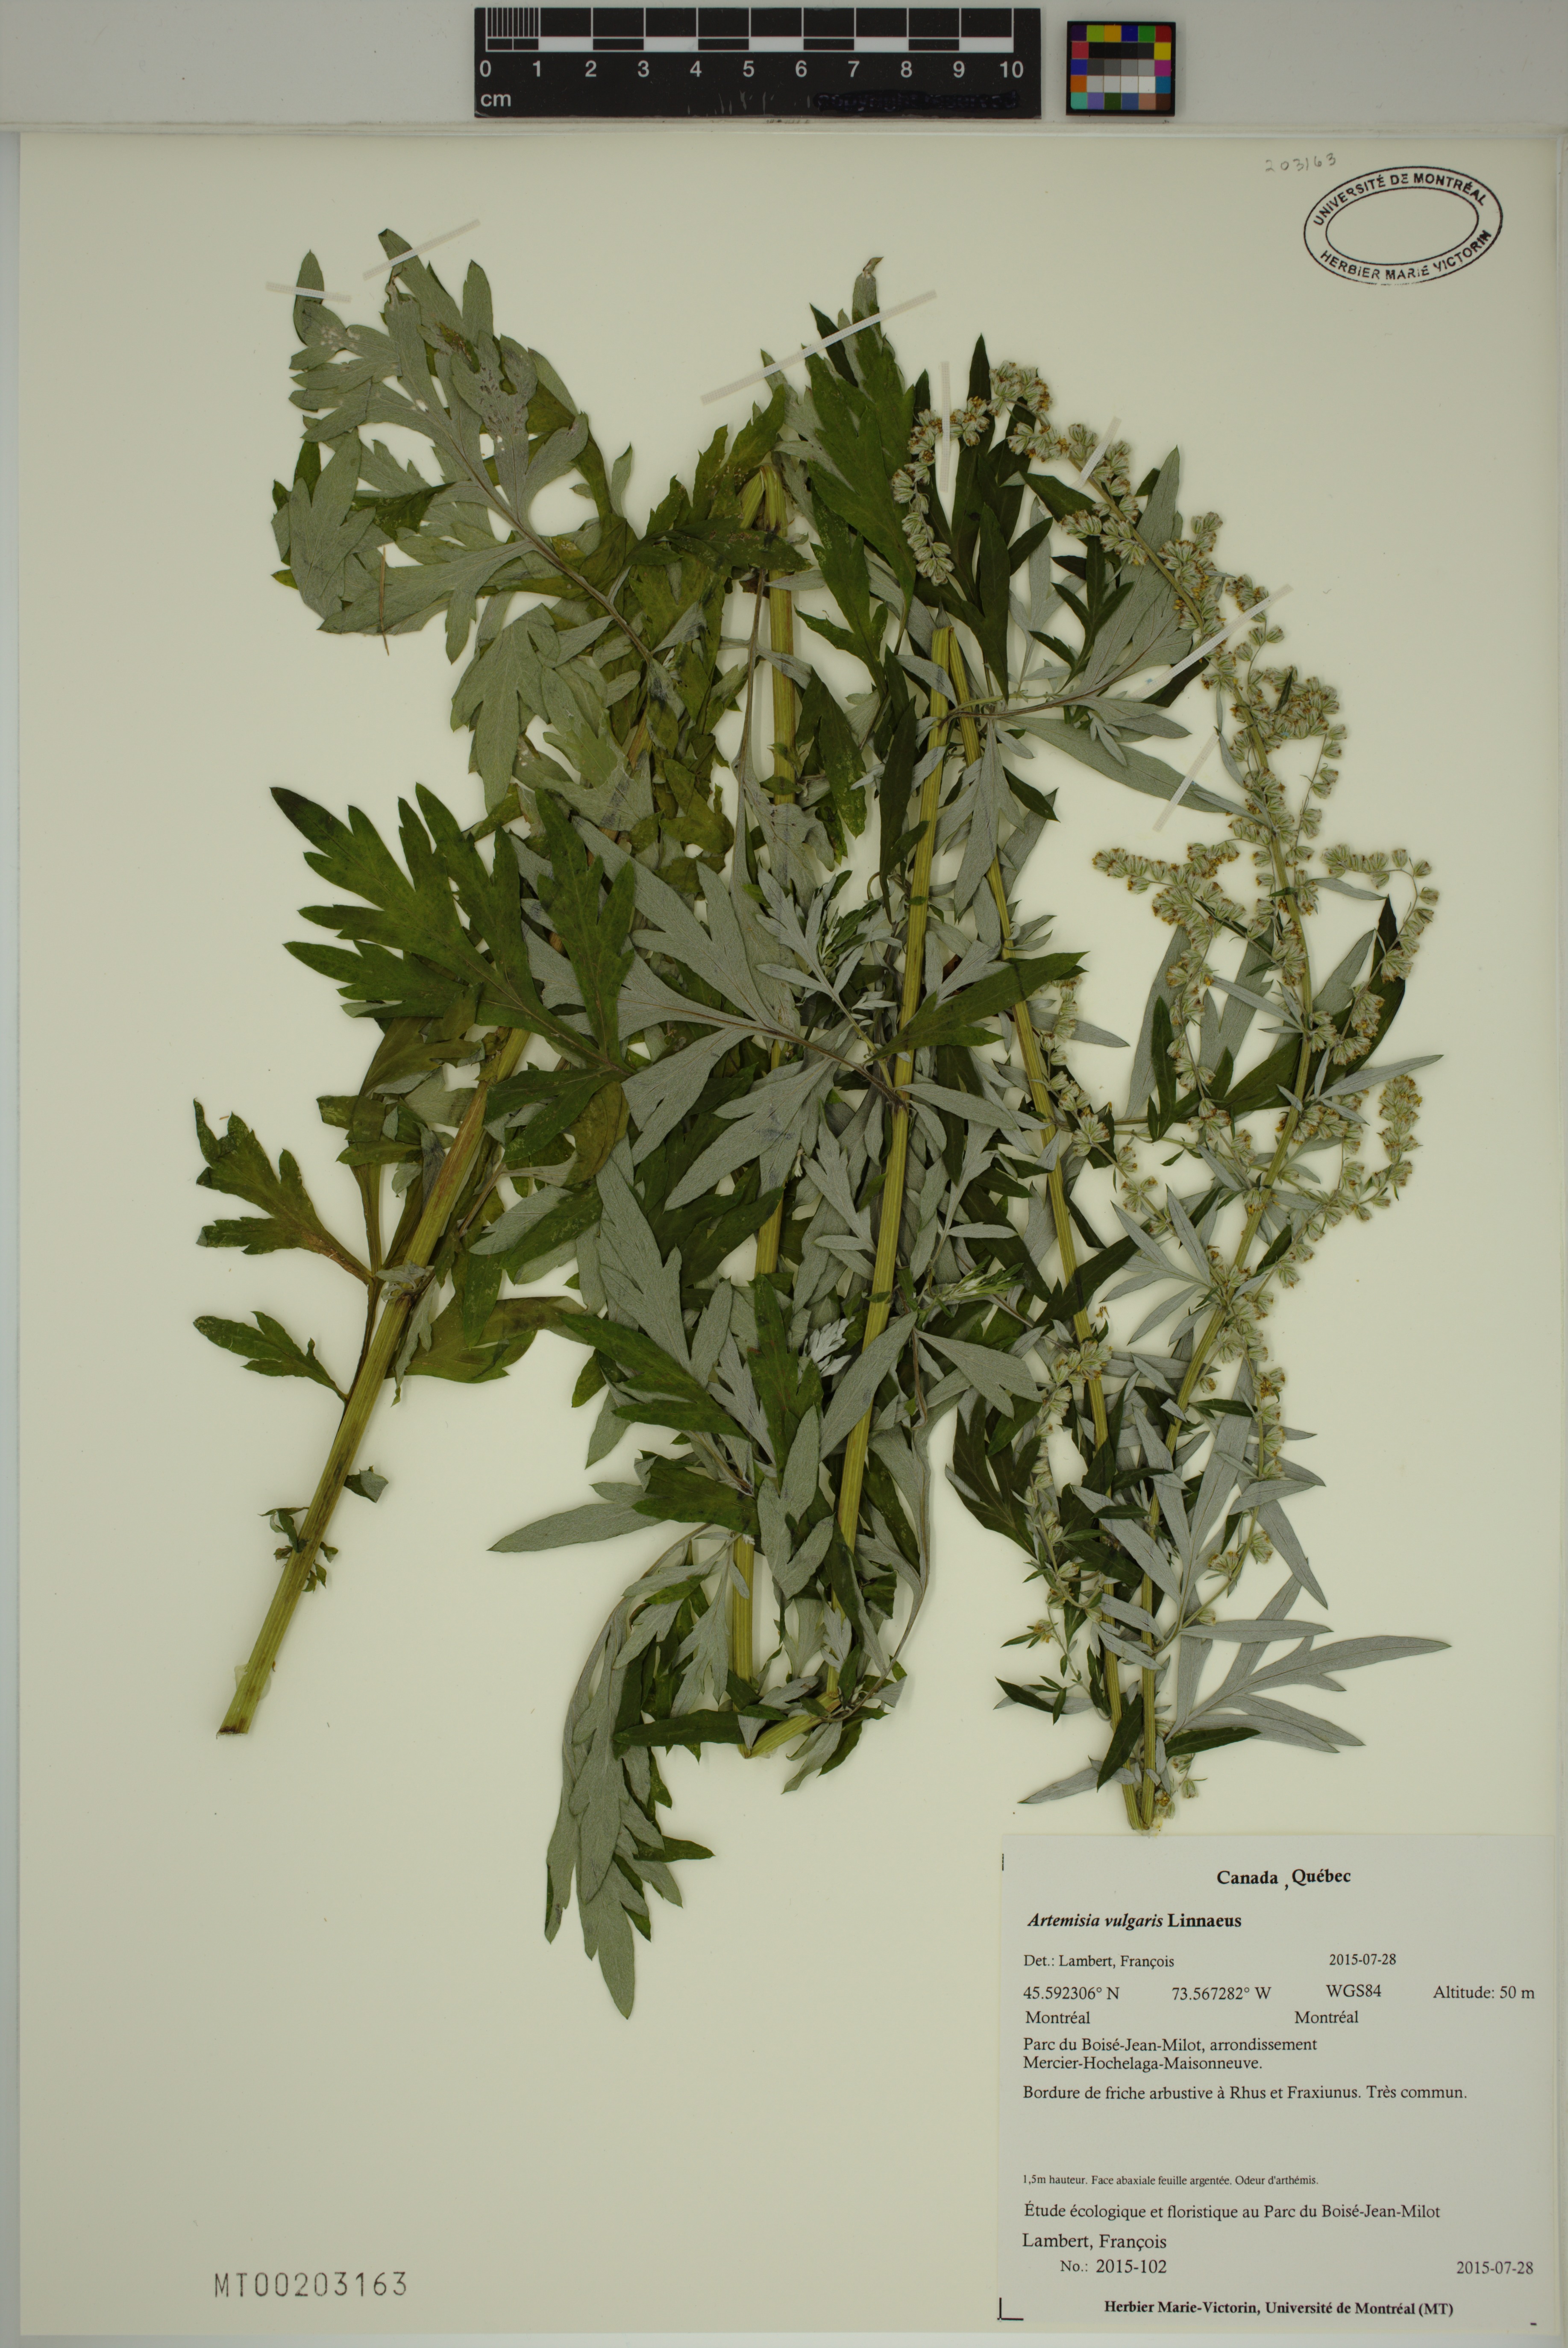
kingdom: Plantae
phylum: Tracheophyta
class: Magnoliopsida
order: Asterales
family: Asteraceae
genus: Artemisia
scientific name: Artemisia vulgaris
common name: Mugwort
